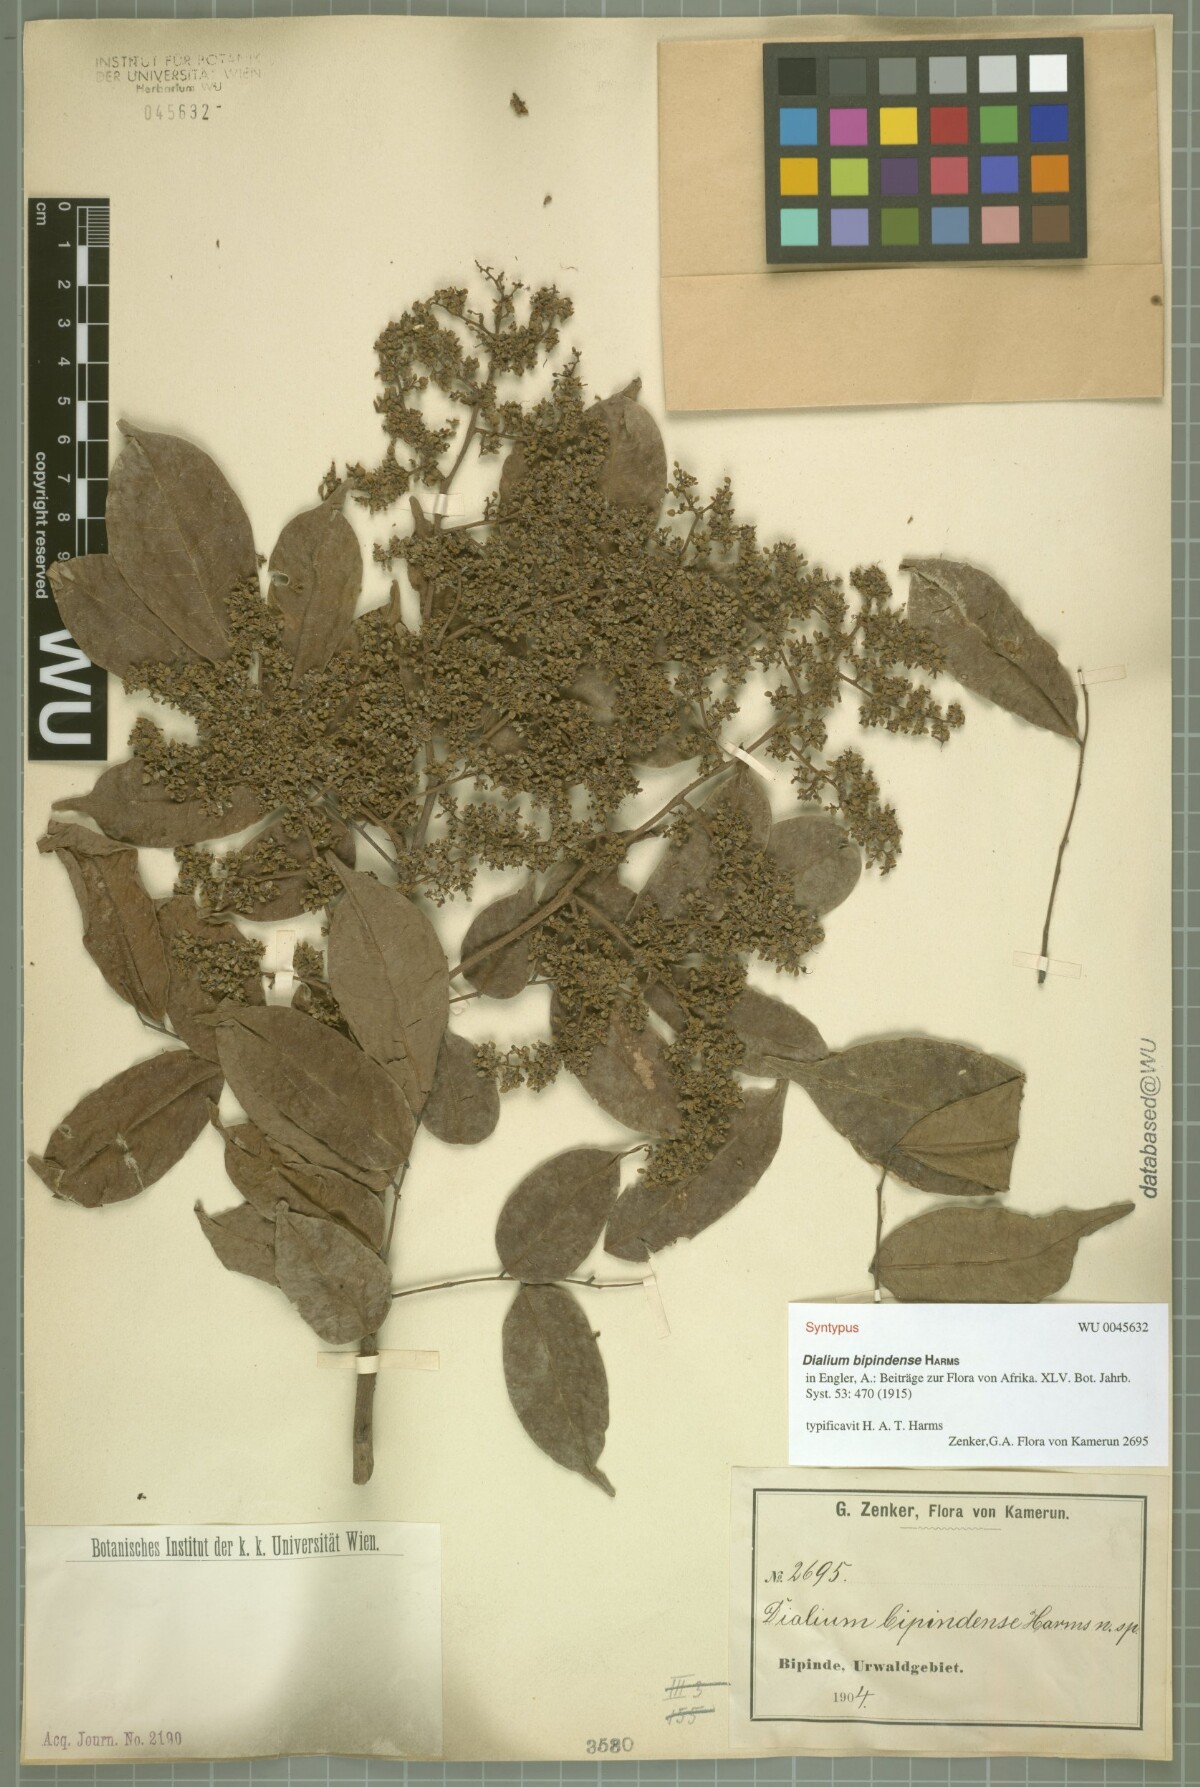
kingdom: Plantae
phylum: Tracheophyta
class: Magnoliopsida
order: Fabales
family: Fabaceae
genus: Dialium
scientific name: Dialium bipindense
